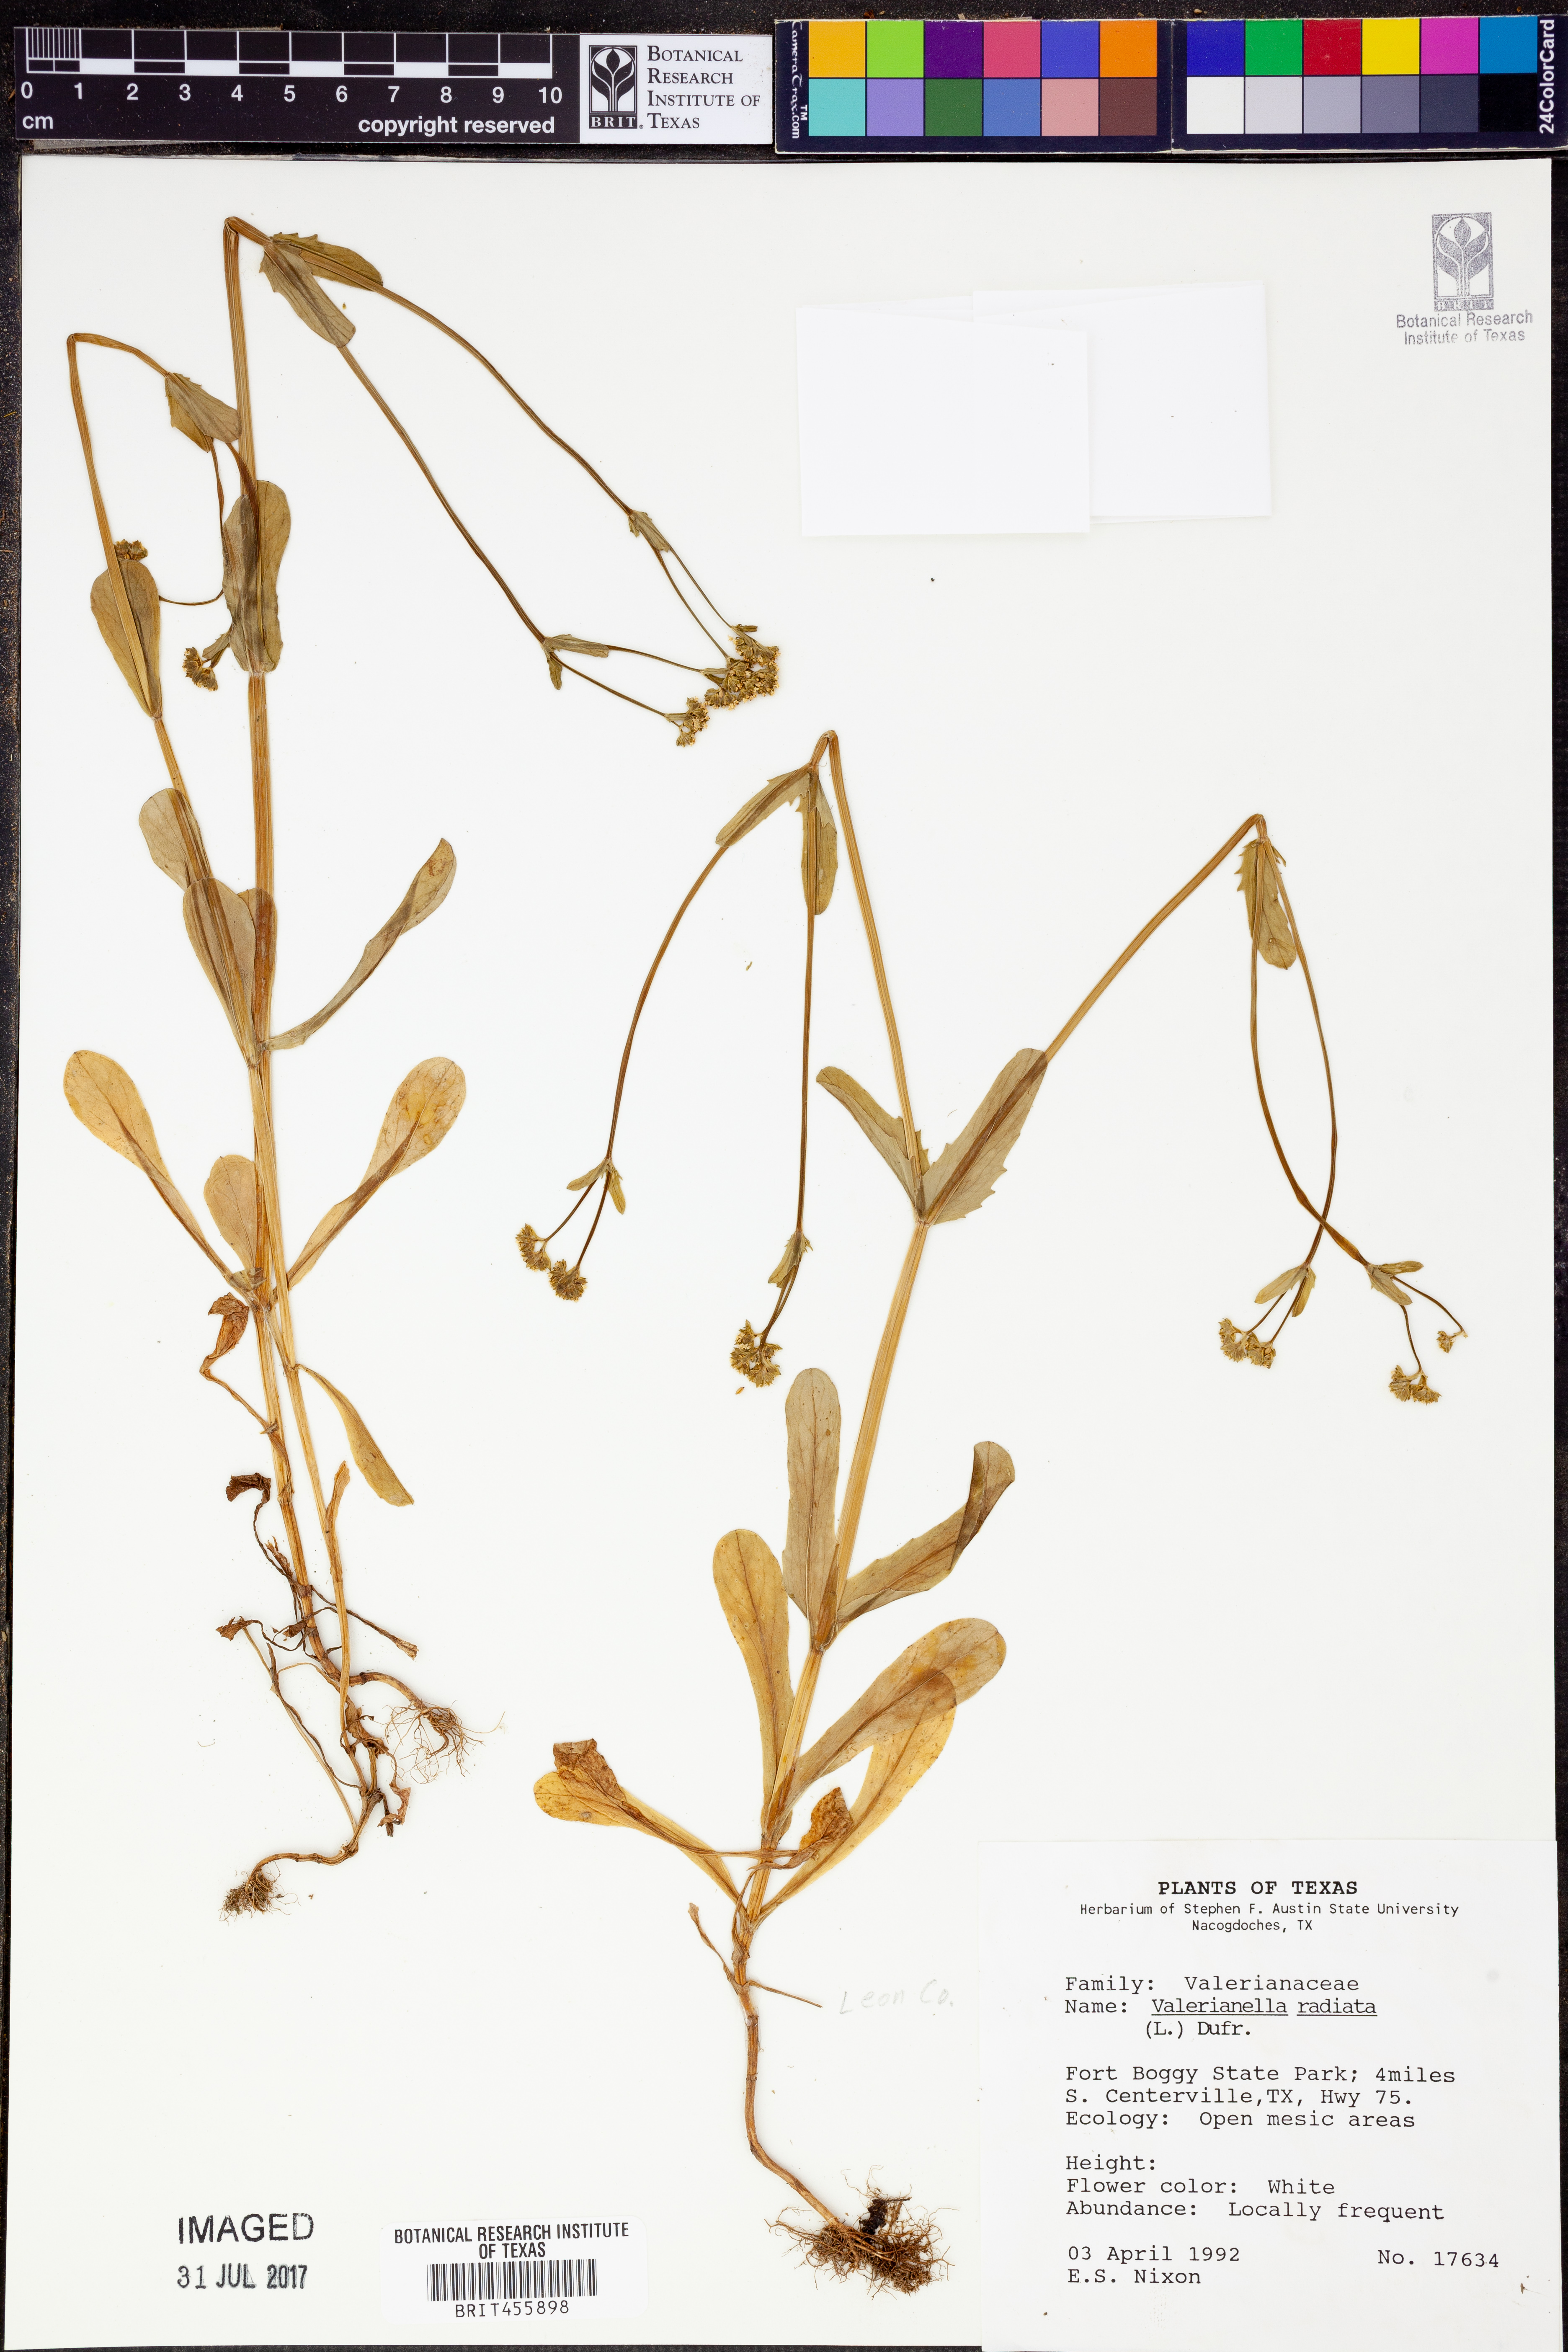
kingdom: Plantae
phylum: Tracheophyta
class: Magnoliopsida
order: Dipsacales
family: Caprifoliaceae
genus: Valerianella
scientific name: Valerianella radiata
